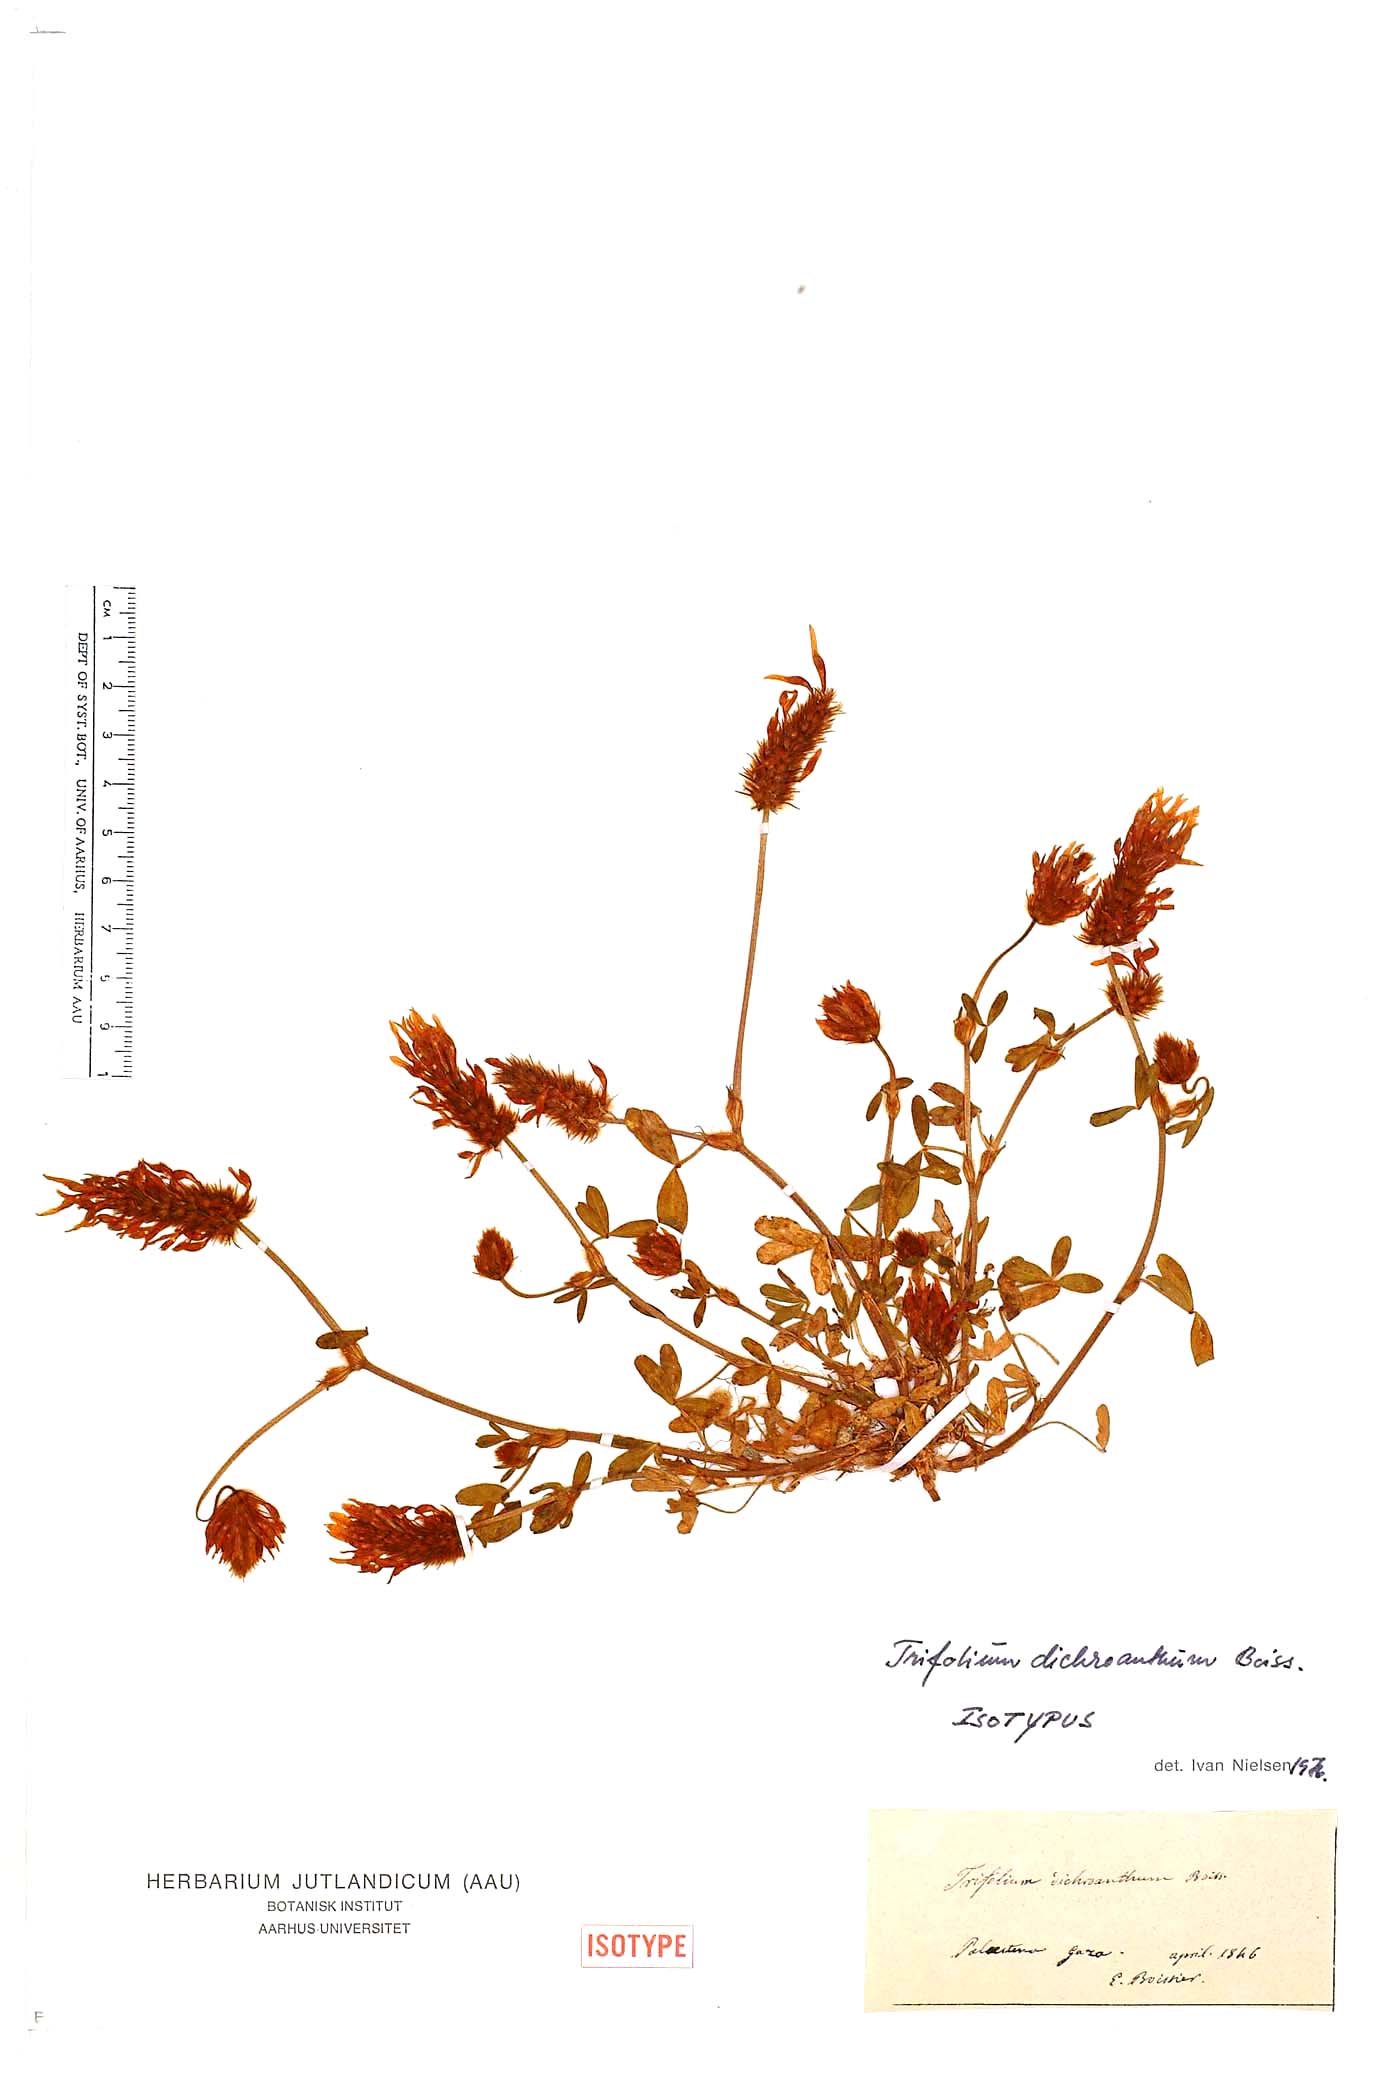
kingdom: Plantae
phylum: Tracheophyta
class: Magnoliopsida
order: Fabales
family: Fabaceae
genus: Trifolium
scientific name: Trifolium dichroanthum
